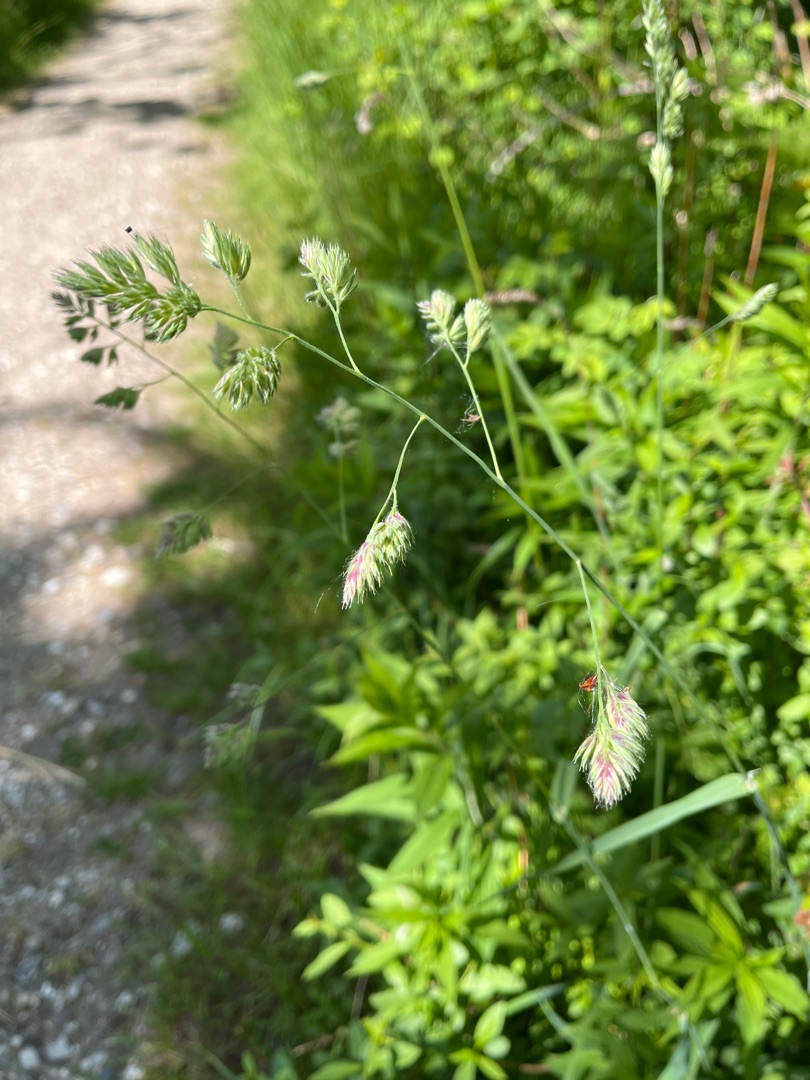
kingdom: Plantae
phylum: Tracheophyta
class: Liliopsida
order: Poales
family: Poaceae
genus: Dactylis
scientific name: Dactylis glomerata
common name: Almindelig hundegræs
